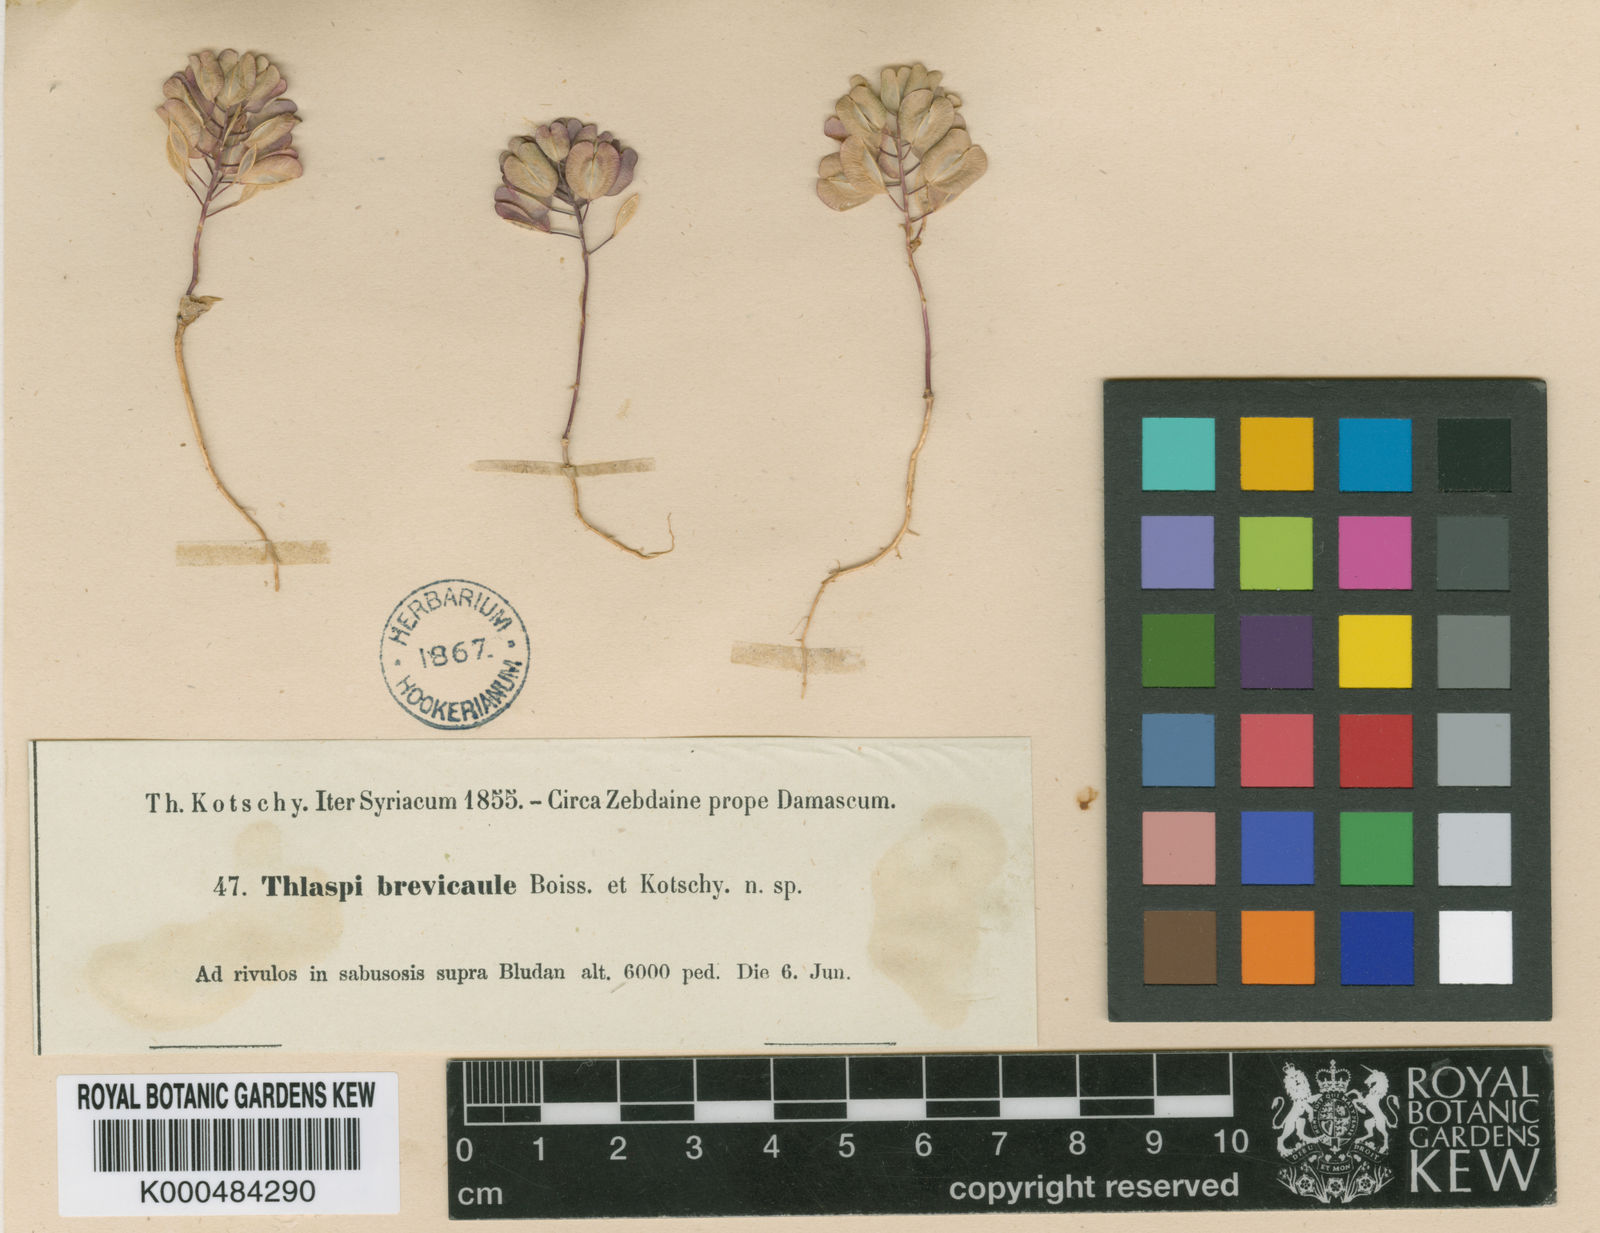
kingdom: Plantae
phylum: Tracheophyta
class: Magnoliopsida
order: Brassicales
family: Brassicaceae
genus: Noccaea
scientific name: Noccaea platycarpa
